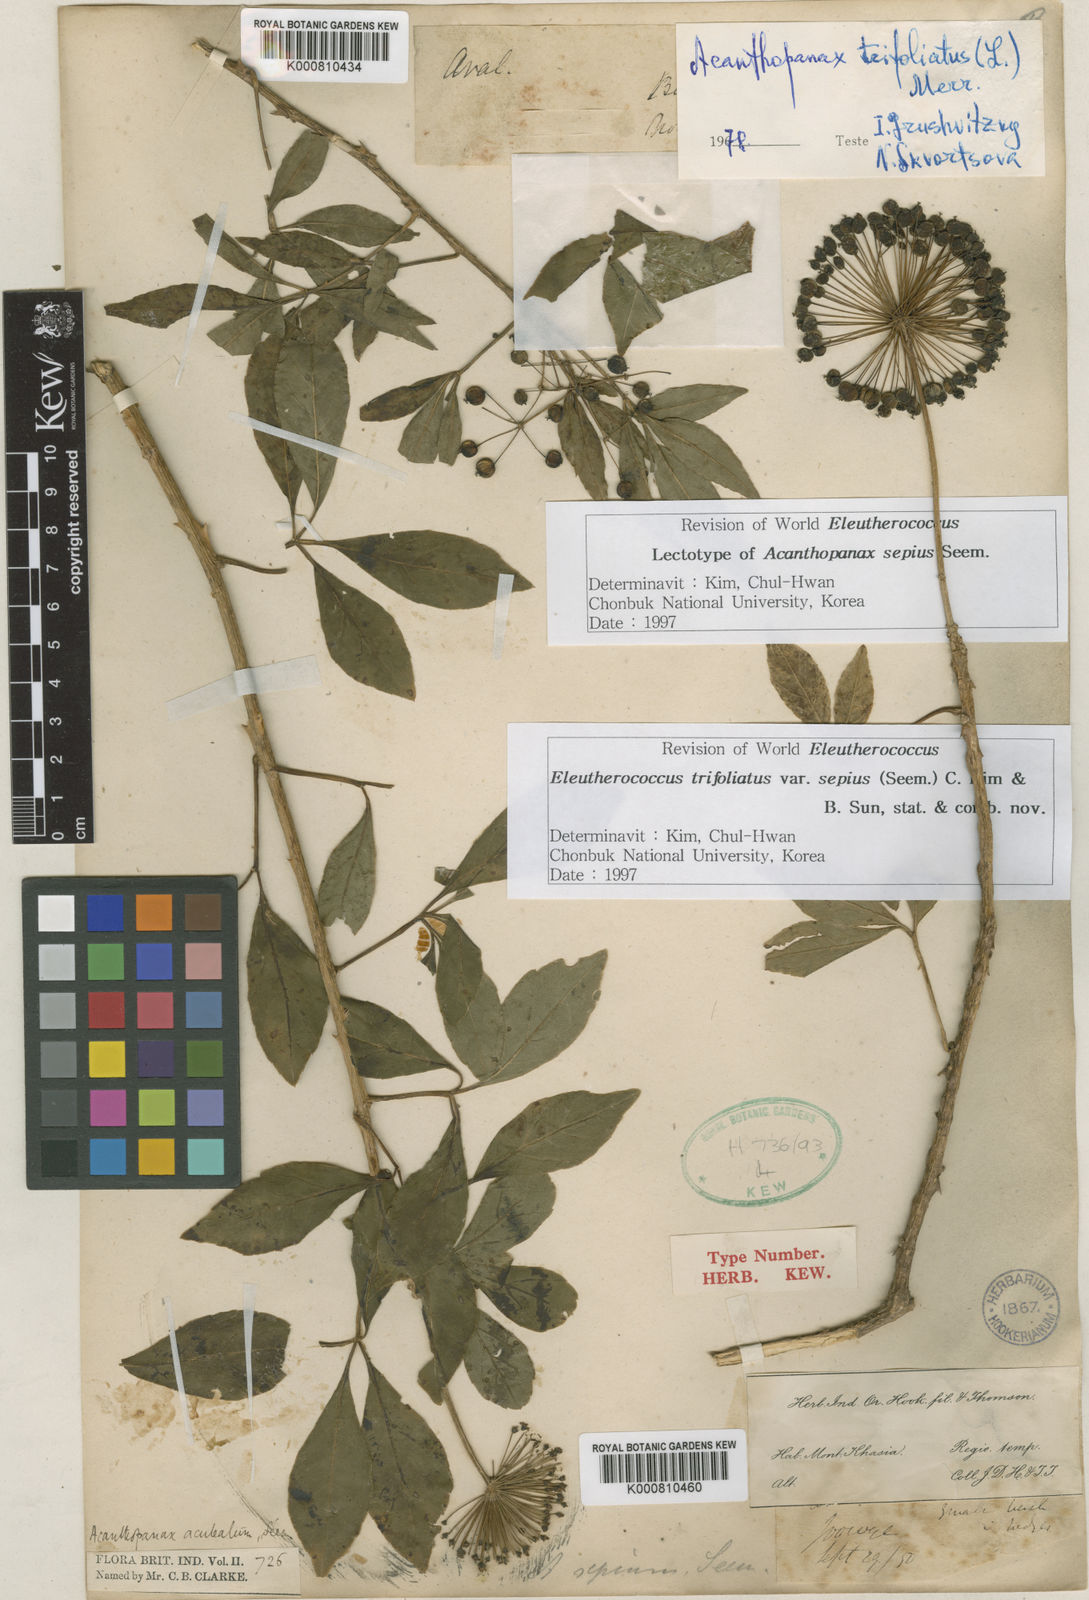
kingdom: Plantae
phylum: Tracheophyta
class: Magnoliopsida
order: Apiales
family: Araliaceae
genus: Eleutherococcus
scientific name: Eleutherococcus trifoliatus
